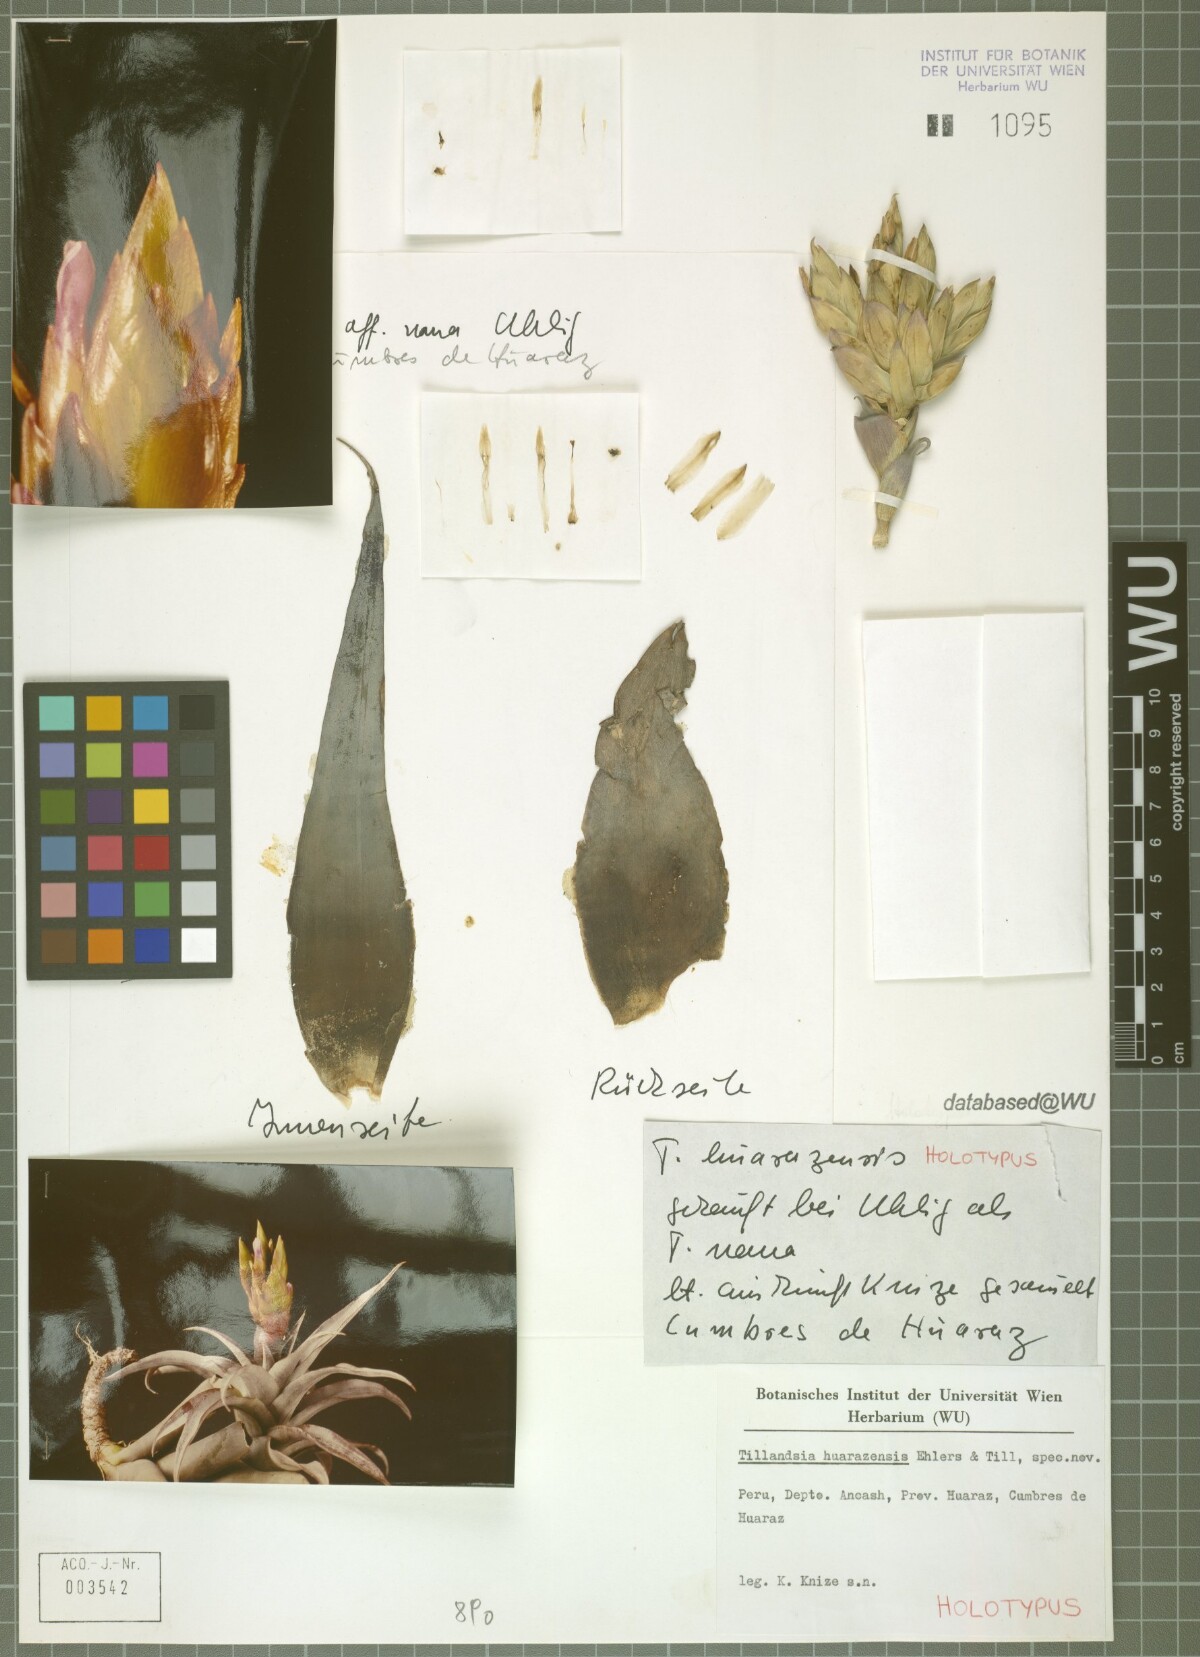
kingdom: Plantae
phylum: Tracheophyta
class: Liliopsida
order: Poales
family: Bromeliaceae
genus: Tillandsia
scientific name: Tillandsia huarazensis
